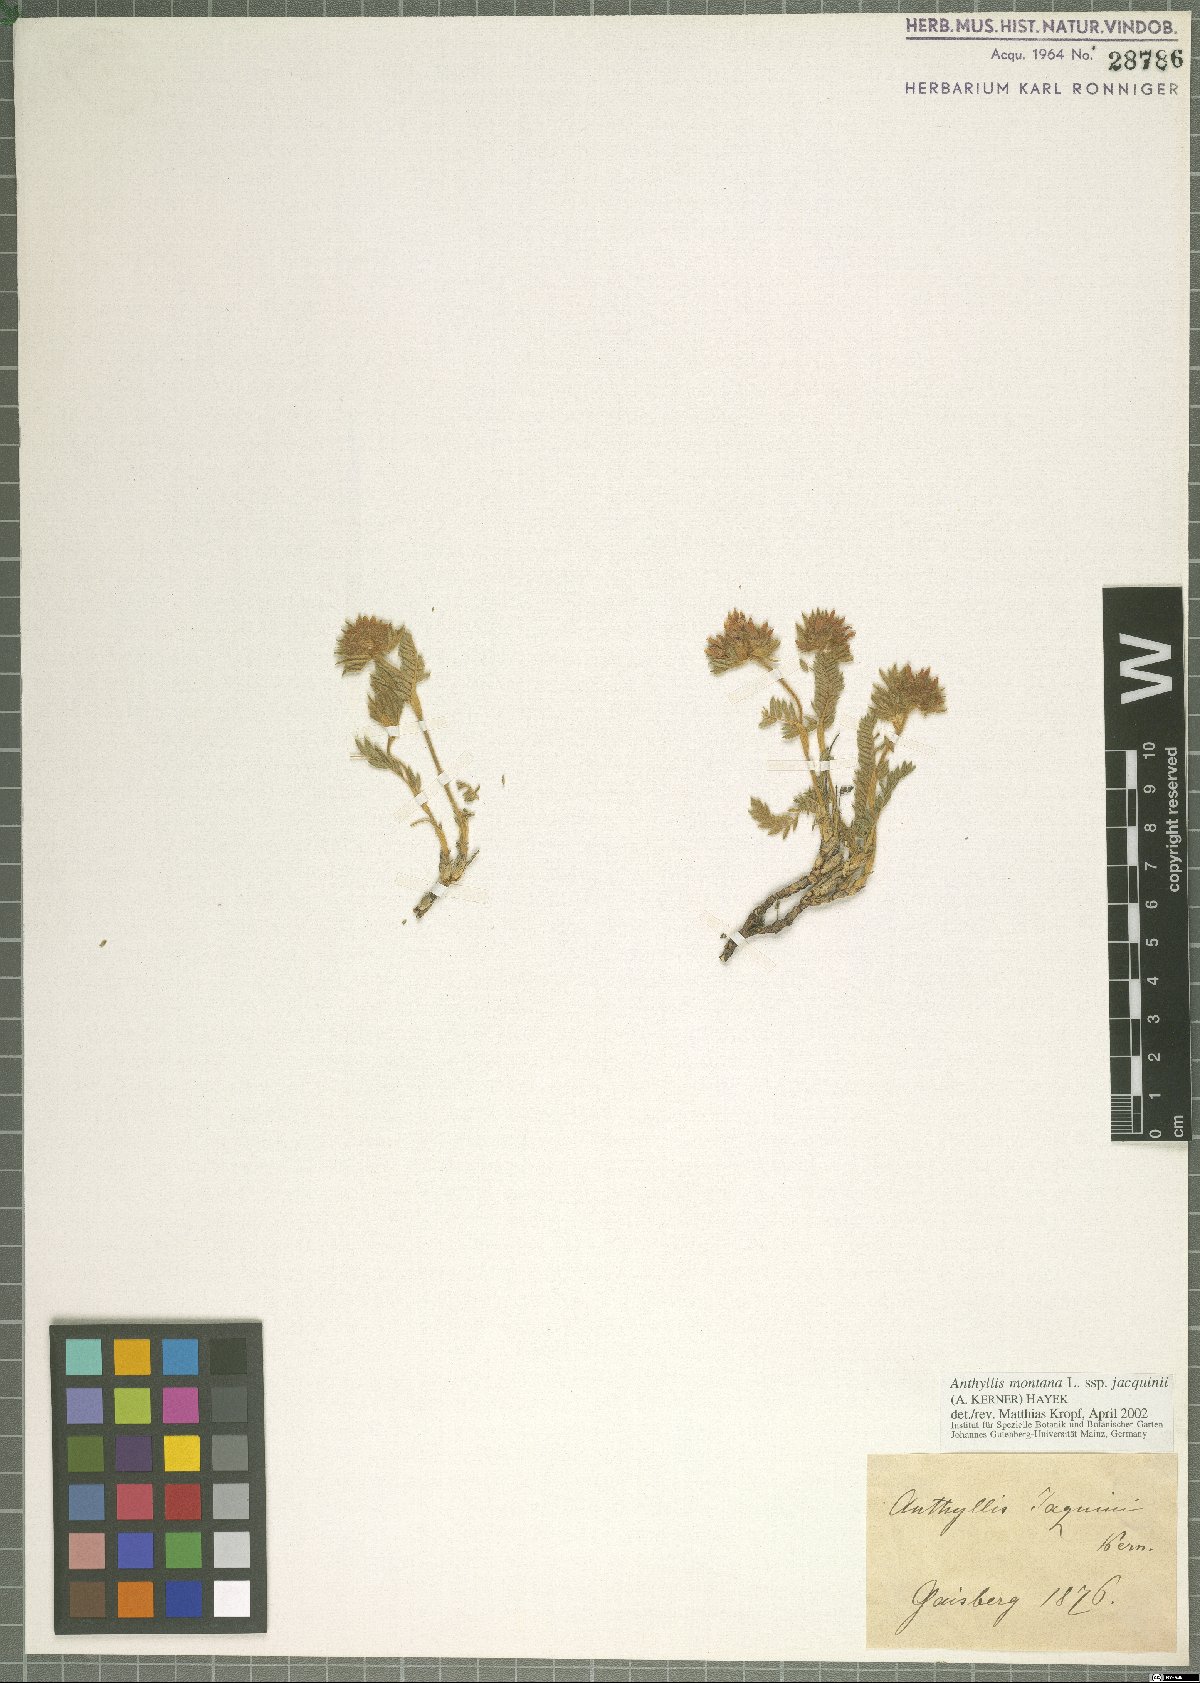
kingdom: Plantae
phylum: Tracheophyta
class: Magnoliopsida
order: Fabales
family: Fabaceae
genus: Anthyllis
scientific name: Anthyllis montana
